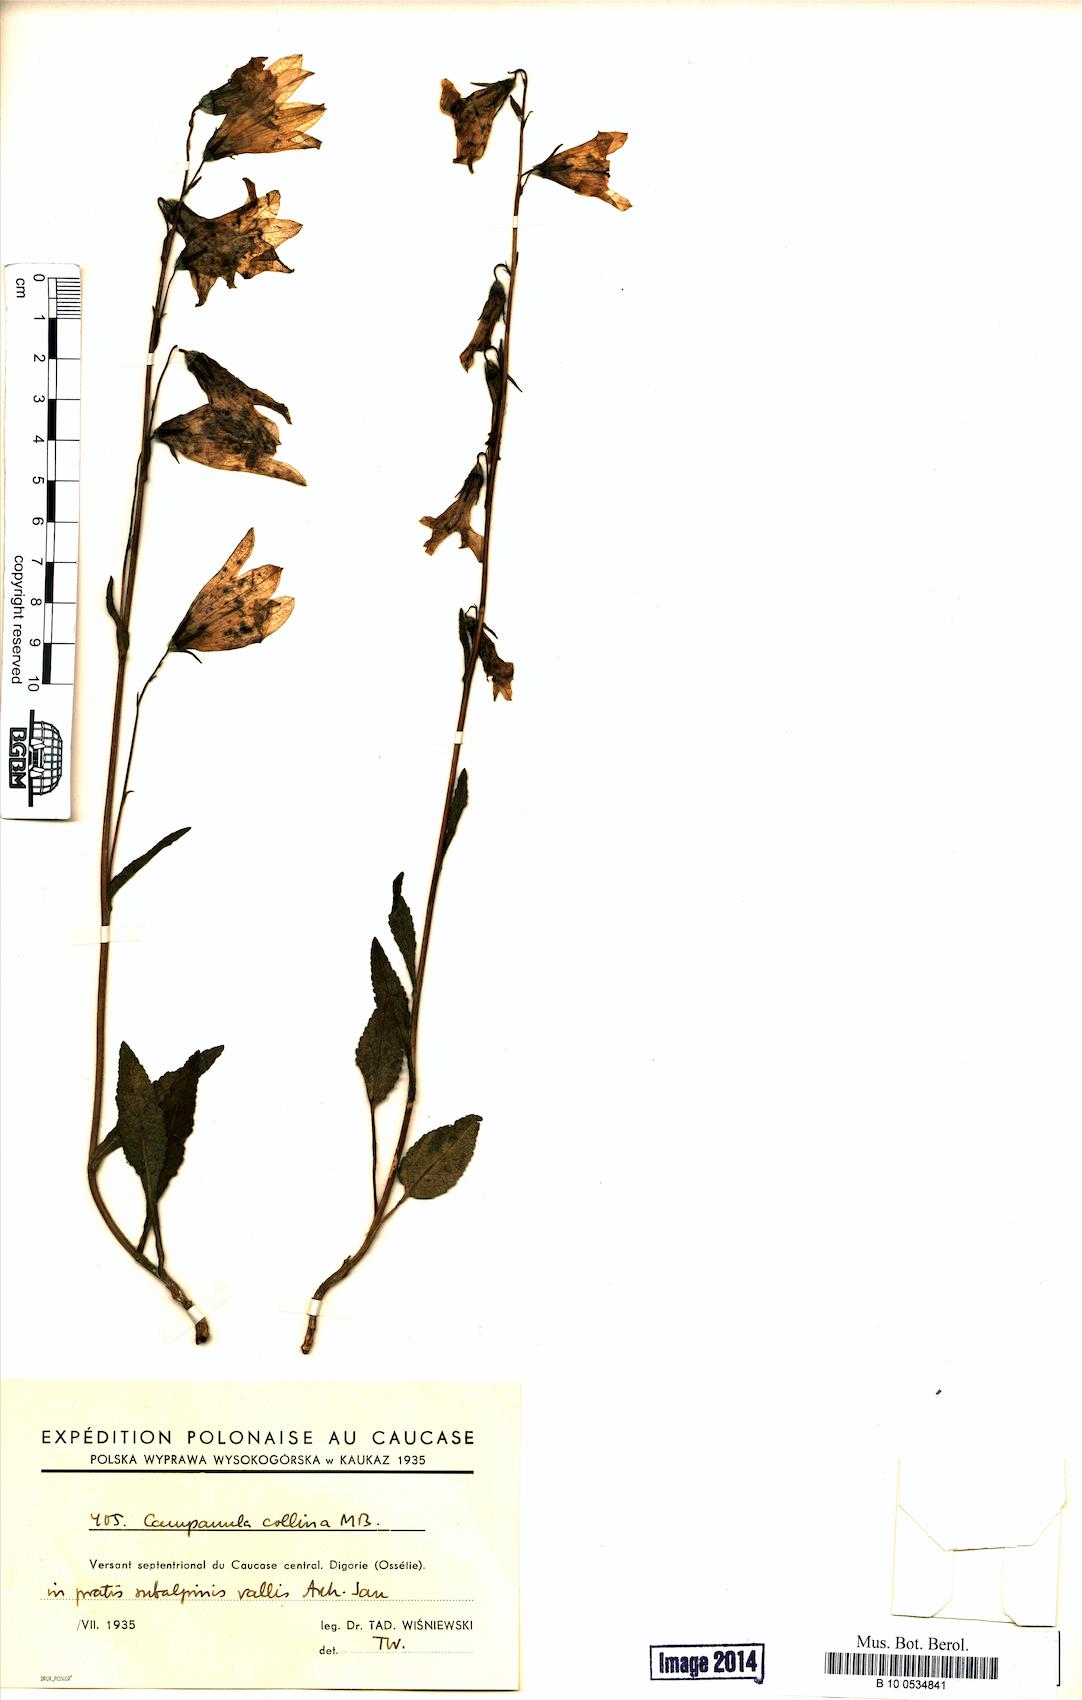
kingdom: Plantae
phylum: Tracheophyta
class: Magnoliopsida
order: Asterales
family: Campanulaceae
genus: Campanula
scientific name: Campanula collina
